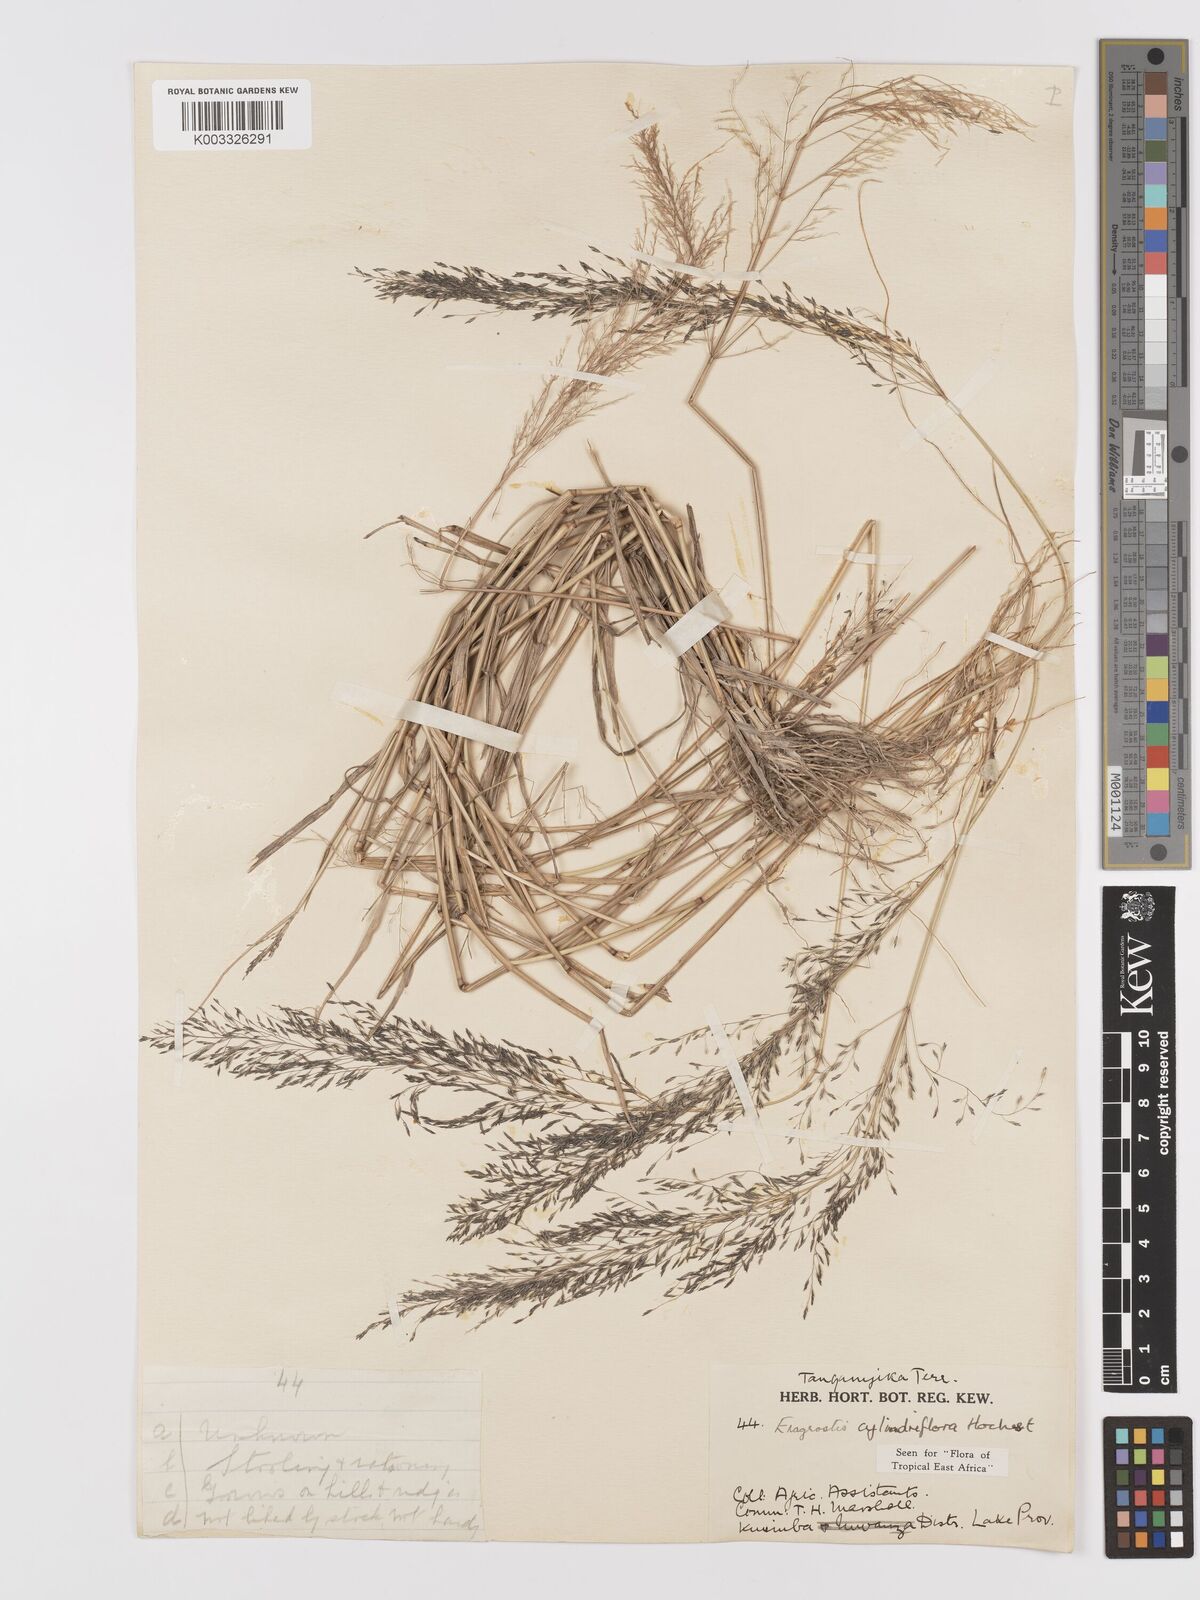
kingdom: Plantae
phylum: Tracheophyta
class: Liliopsida
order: Poales
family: Poaceae
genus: Eragrostis
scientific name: Eragrostis cylindriflora
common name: Cylinderflower lovegrass
